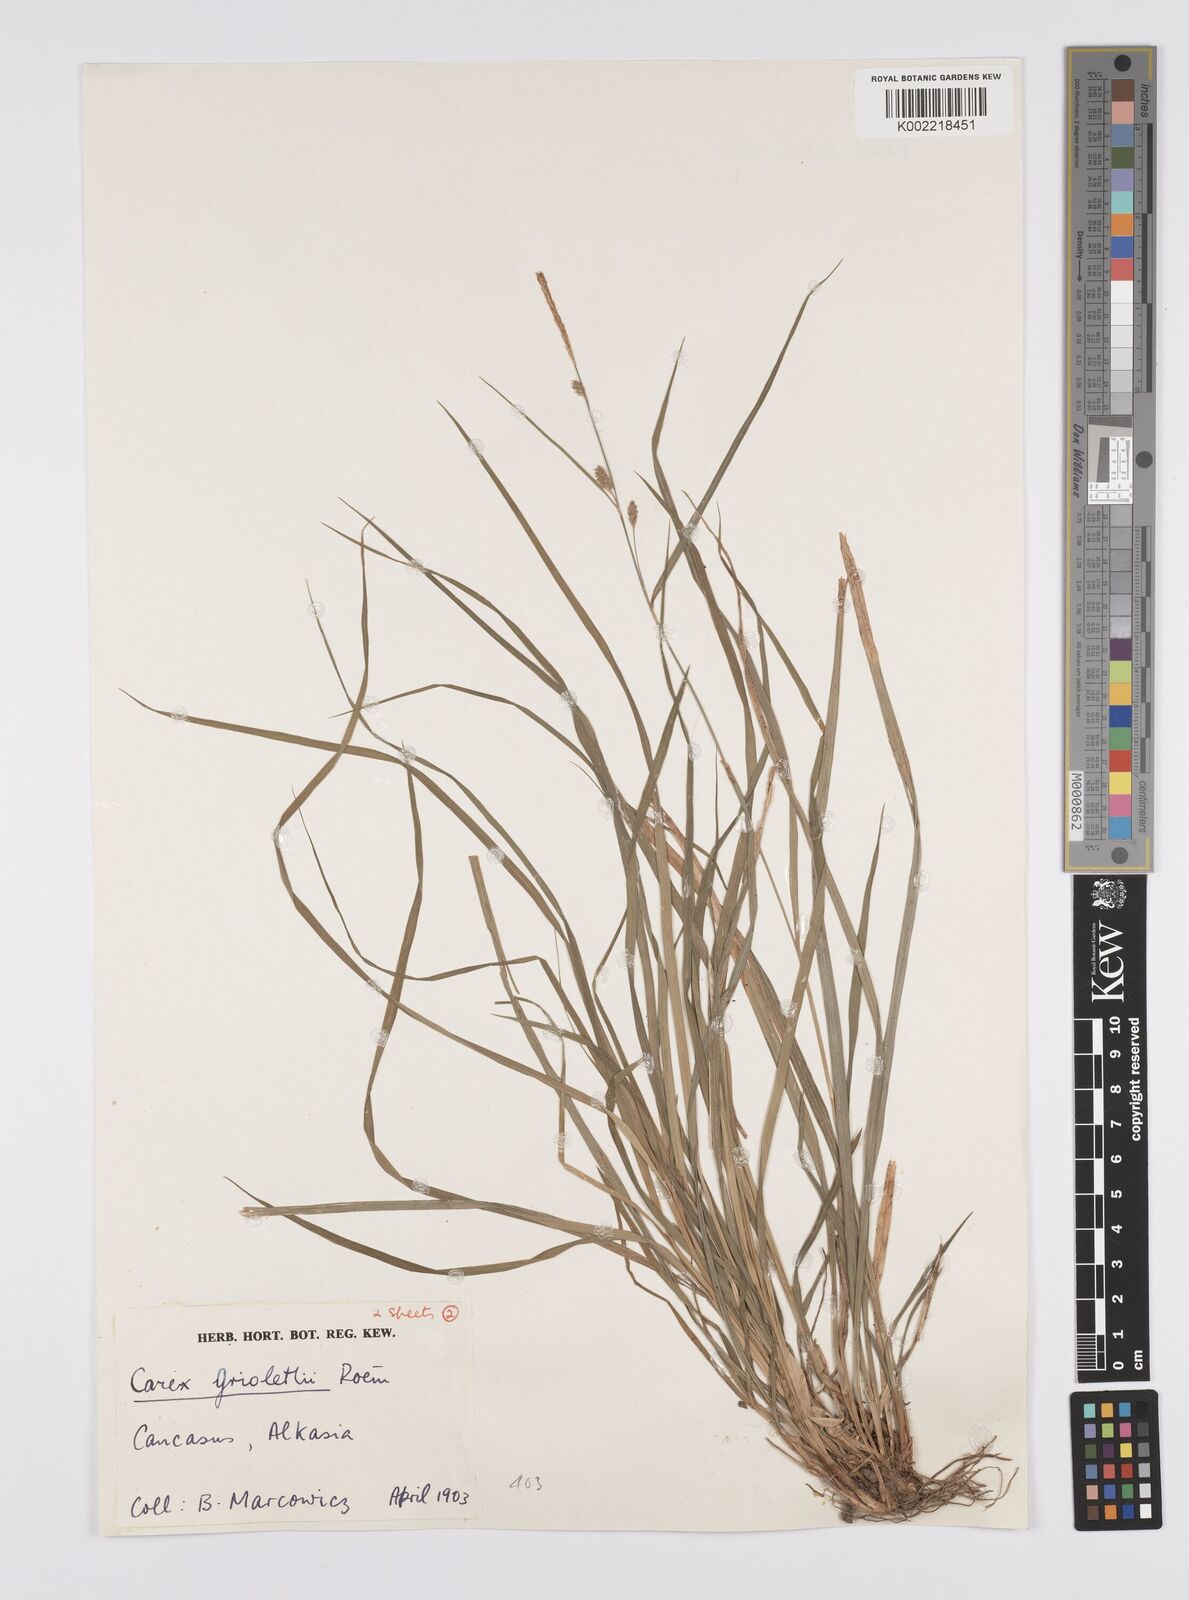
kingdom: Plantae
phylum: Tracheophyta
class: Liliopsida
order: Poales
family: Cyperaceae
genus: Carex
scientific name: Carex grioletii
